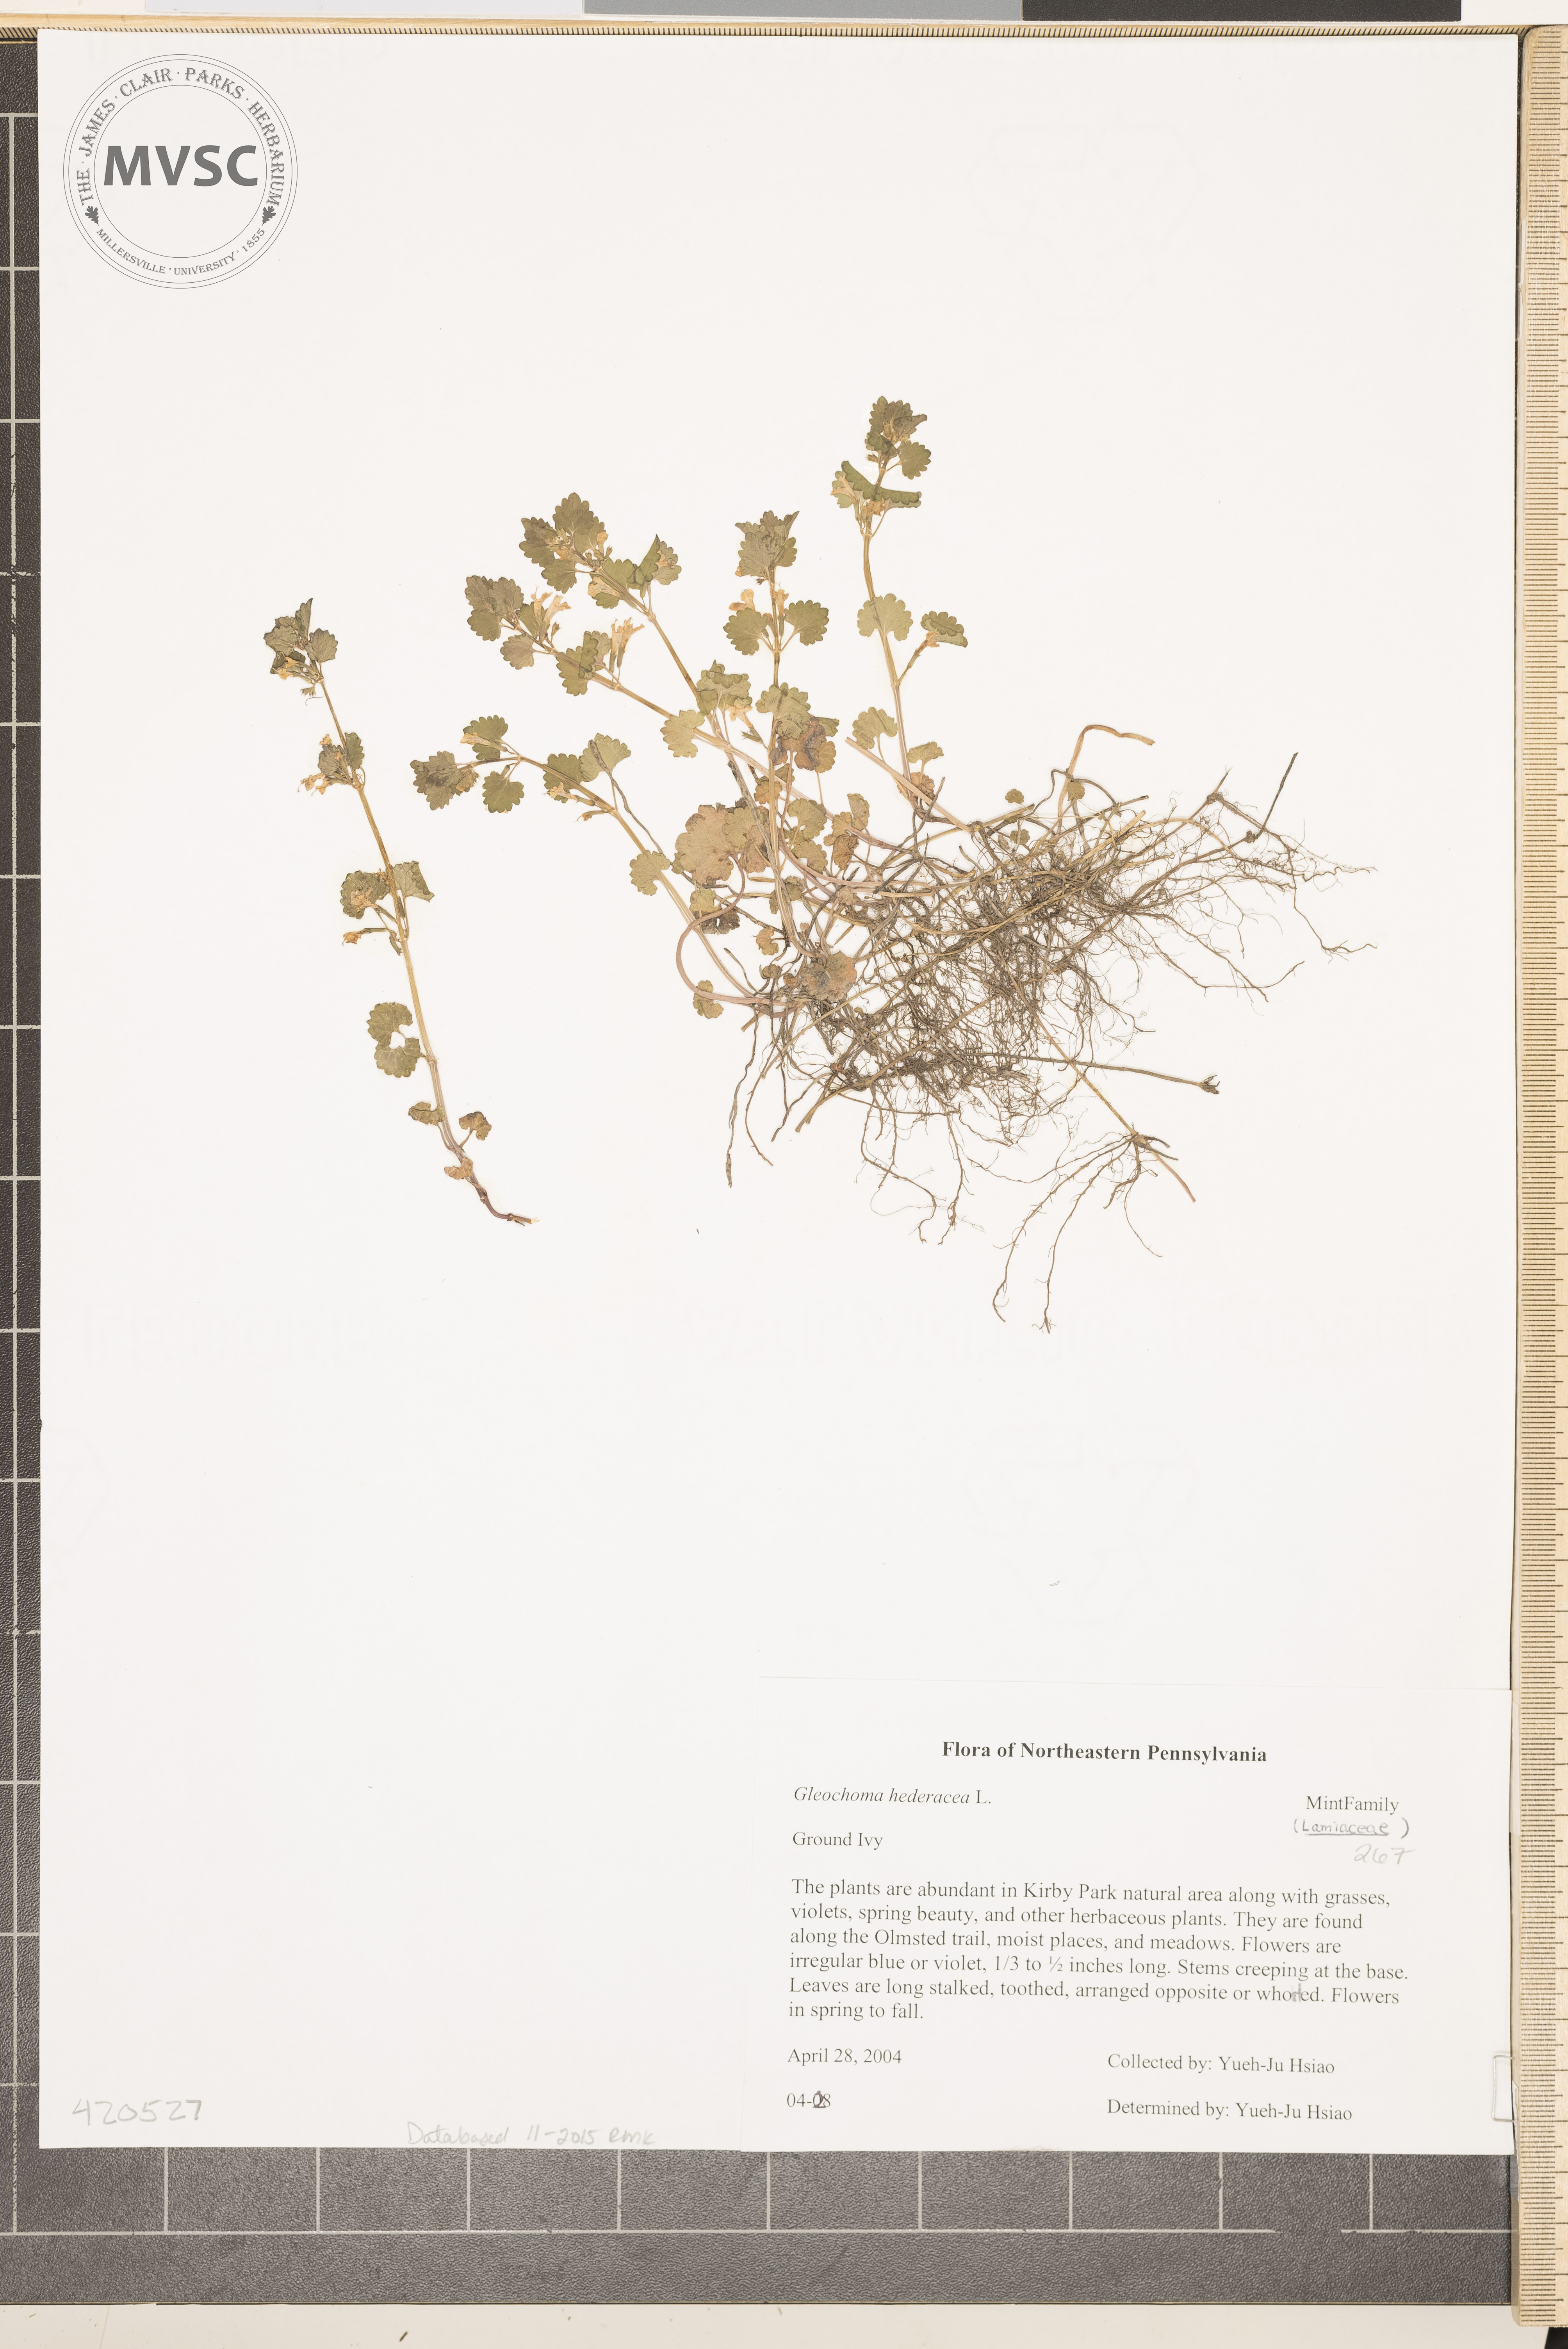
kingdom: Plantae
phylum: Tracheophyta
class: Magnoliopsida
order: Lamiales
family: Lamiaceae
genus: Glechoma
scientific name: Glechoma hederacea
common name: Ground Ivy
